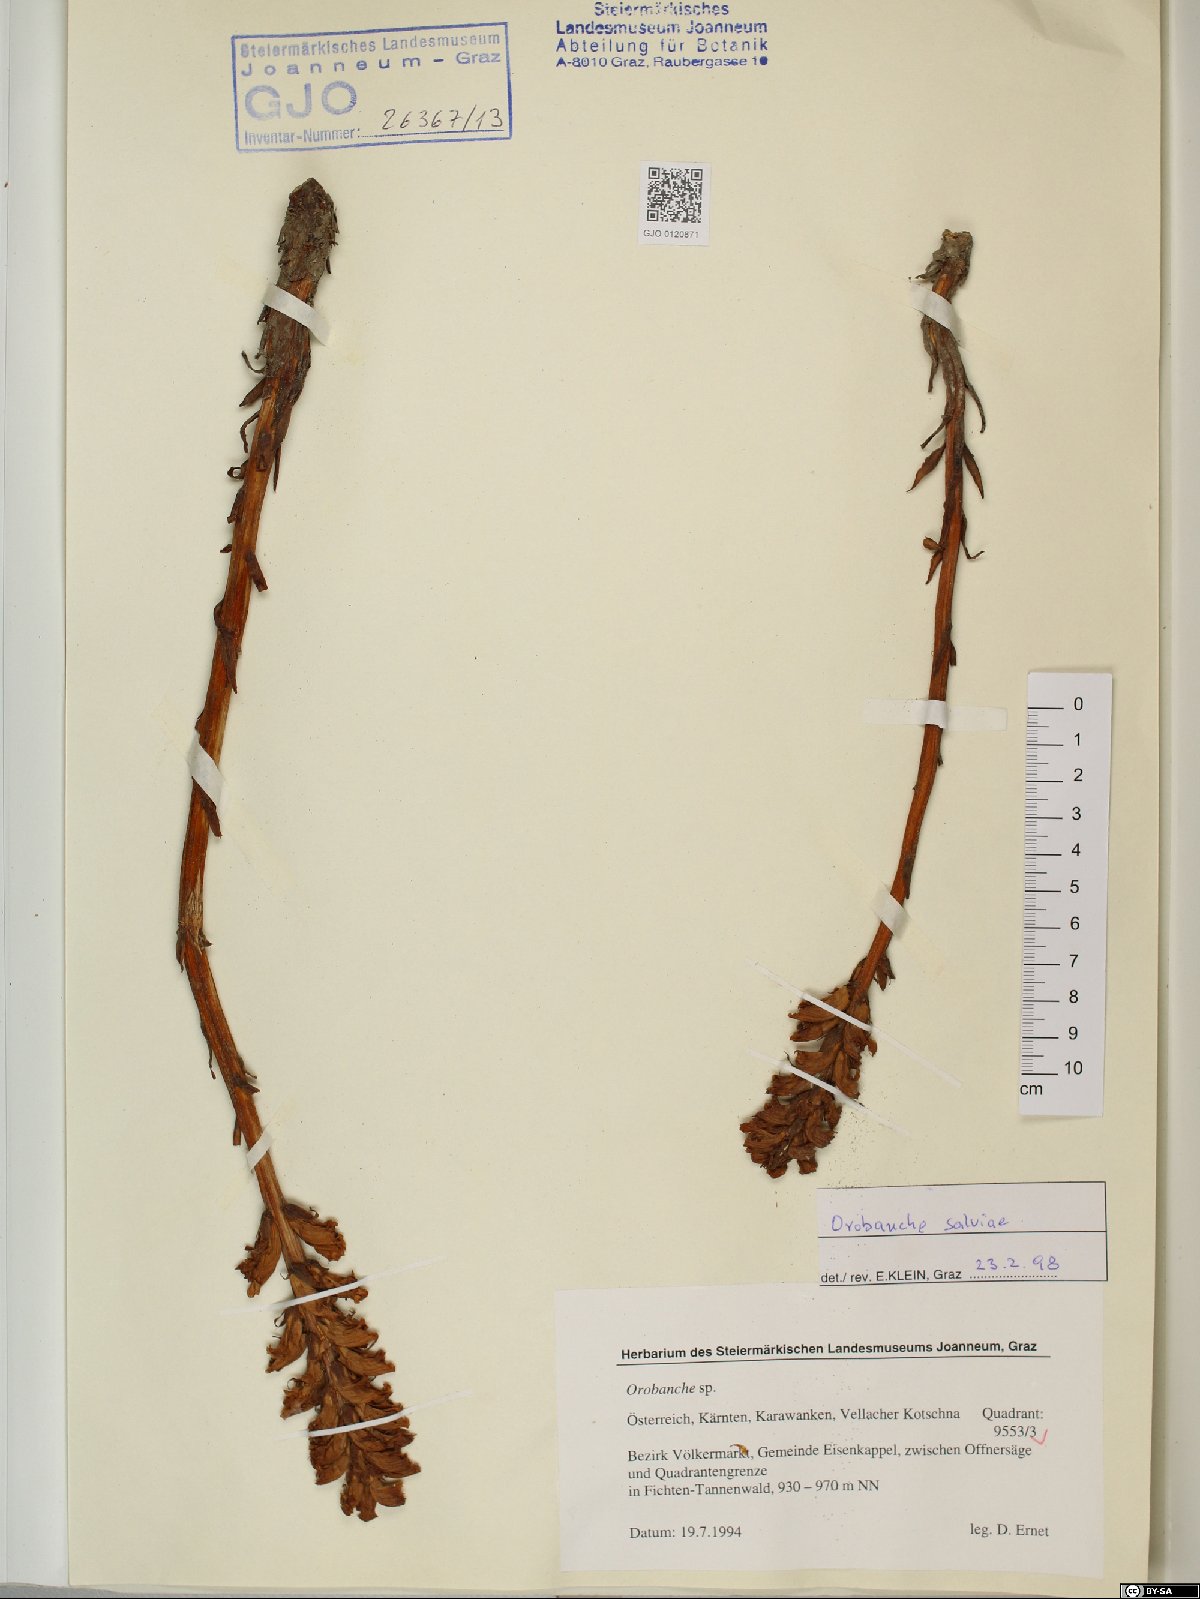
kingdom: Plantae
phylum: Tracheophyta
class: Magnoliopsida
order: Lamiales
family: Orobanchaceae
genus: Orobanche
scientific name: Orobanche salviae
